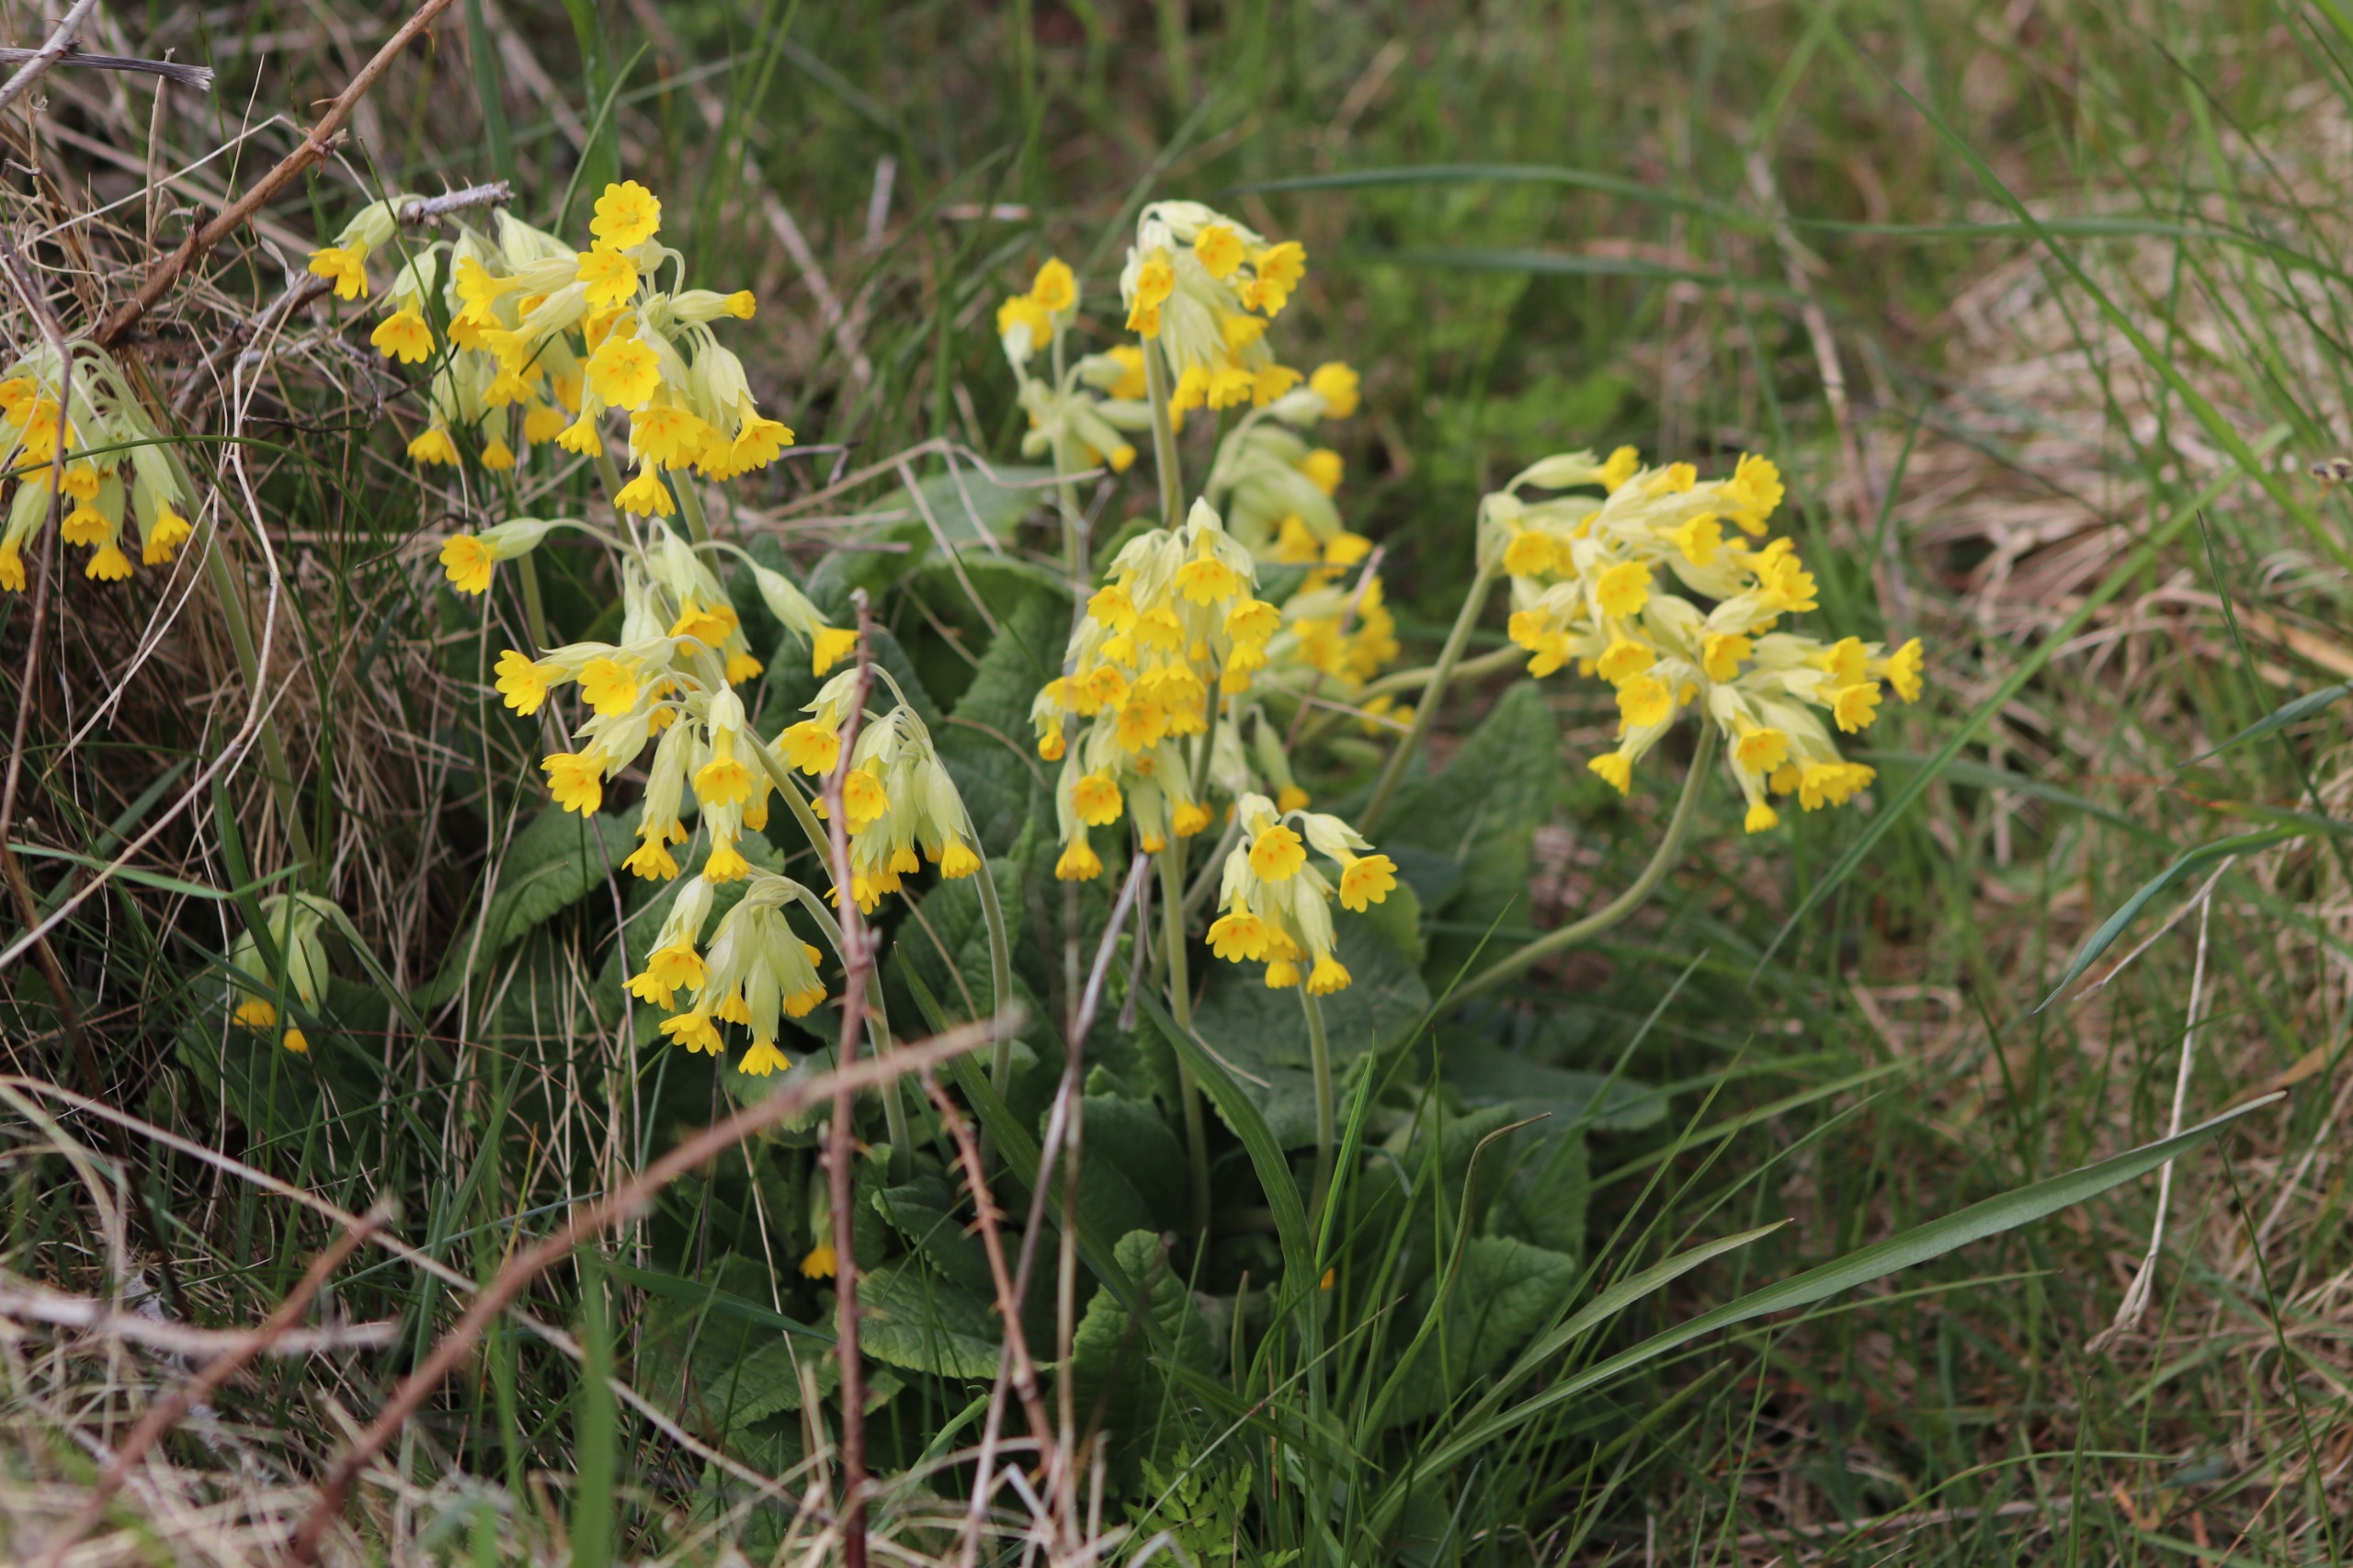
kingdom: Plantae
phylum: Tracheophyta
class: Magnoliopsida
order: Ericales
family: Primulaceae
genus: Primula
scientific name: Primula veris
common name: Hulkravet kodriver
